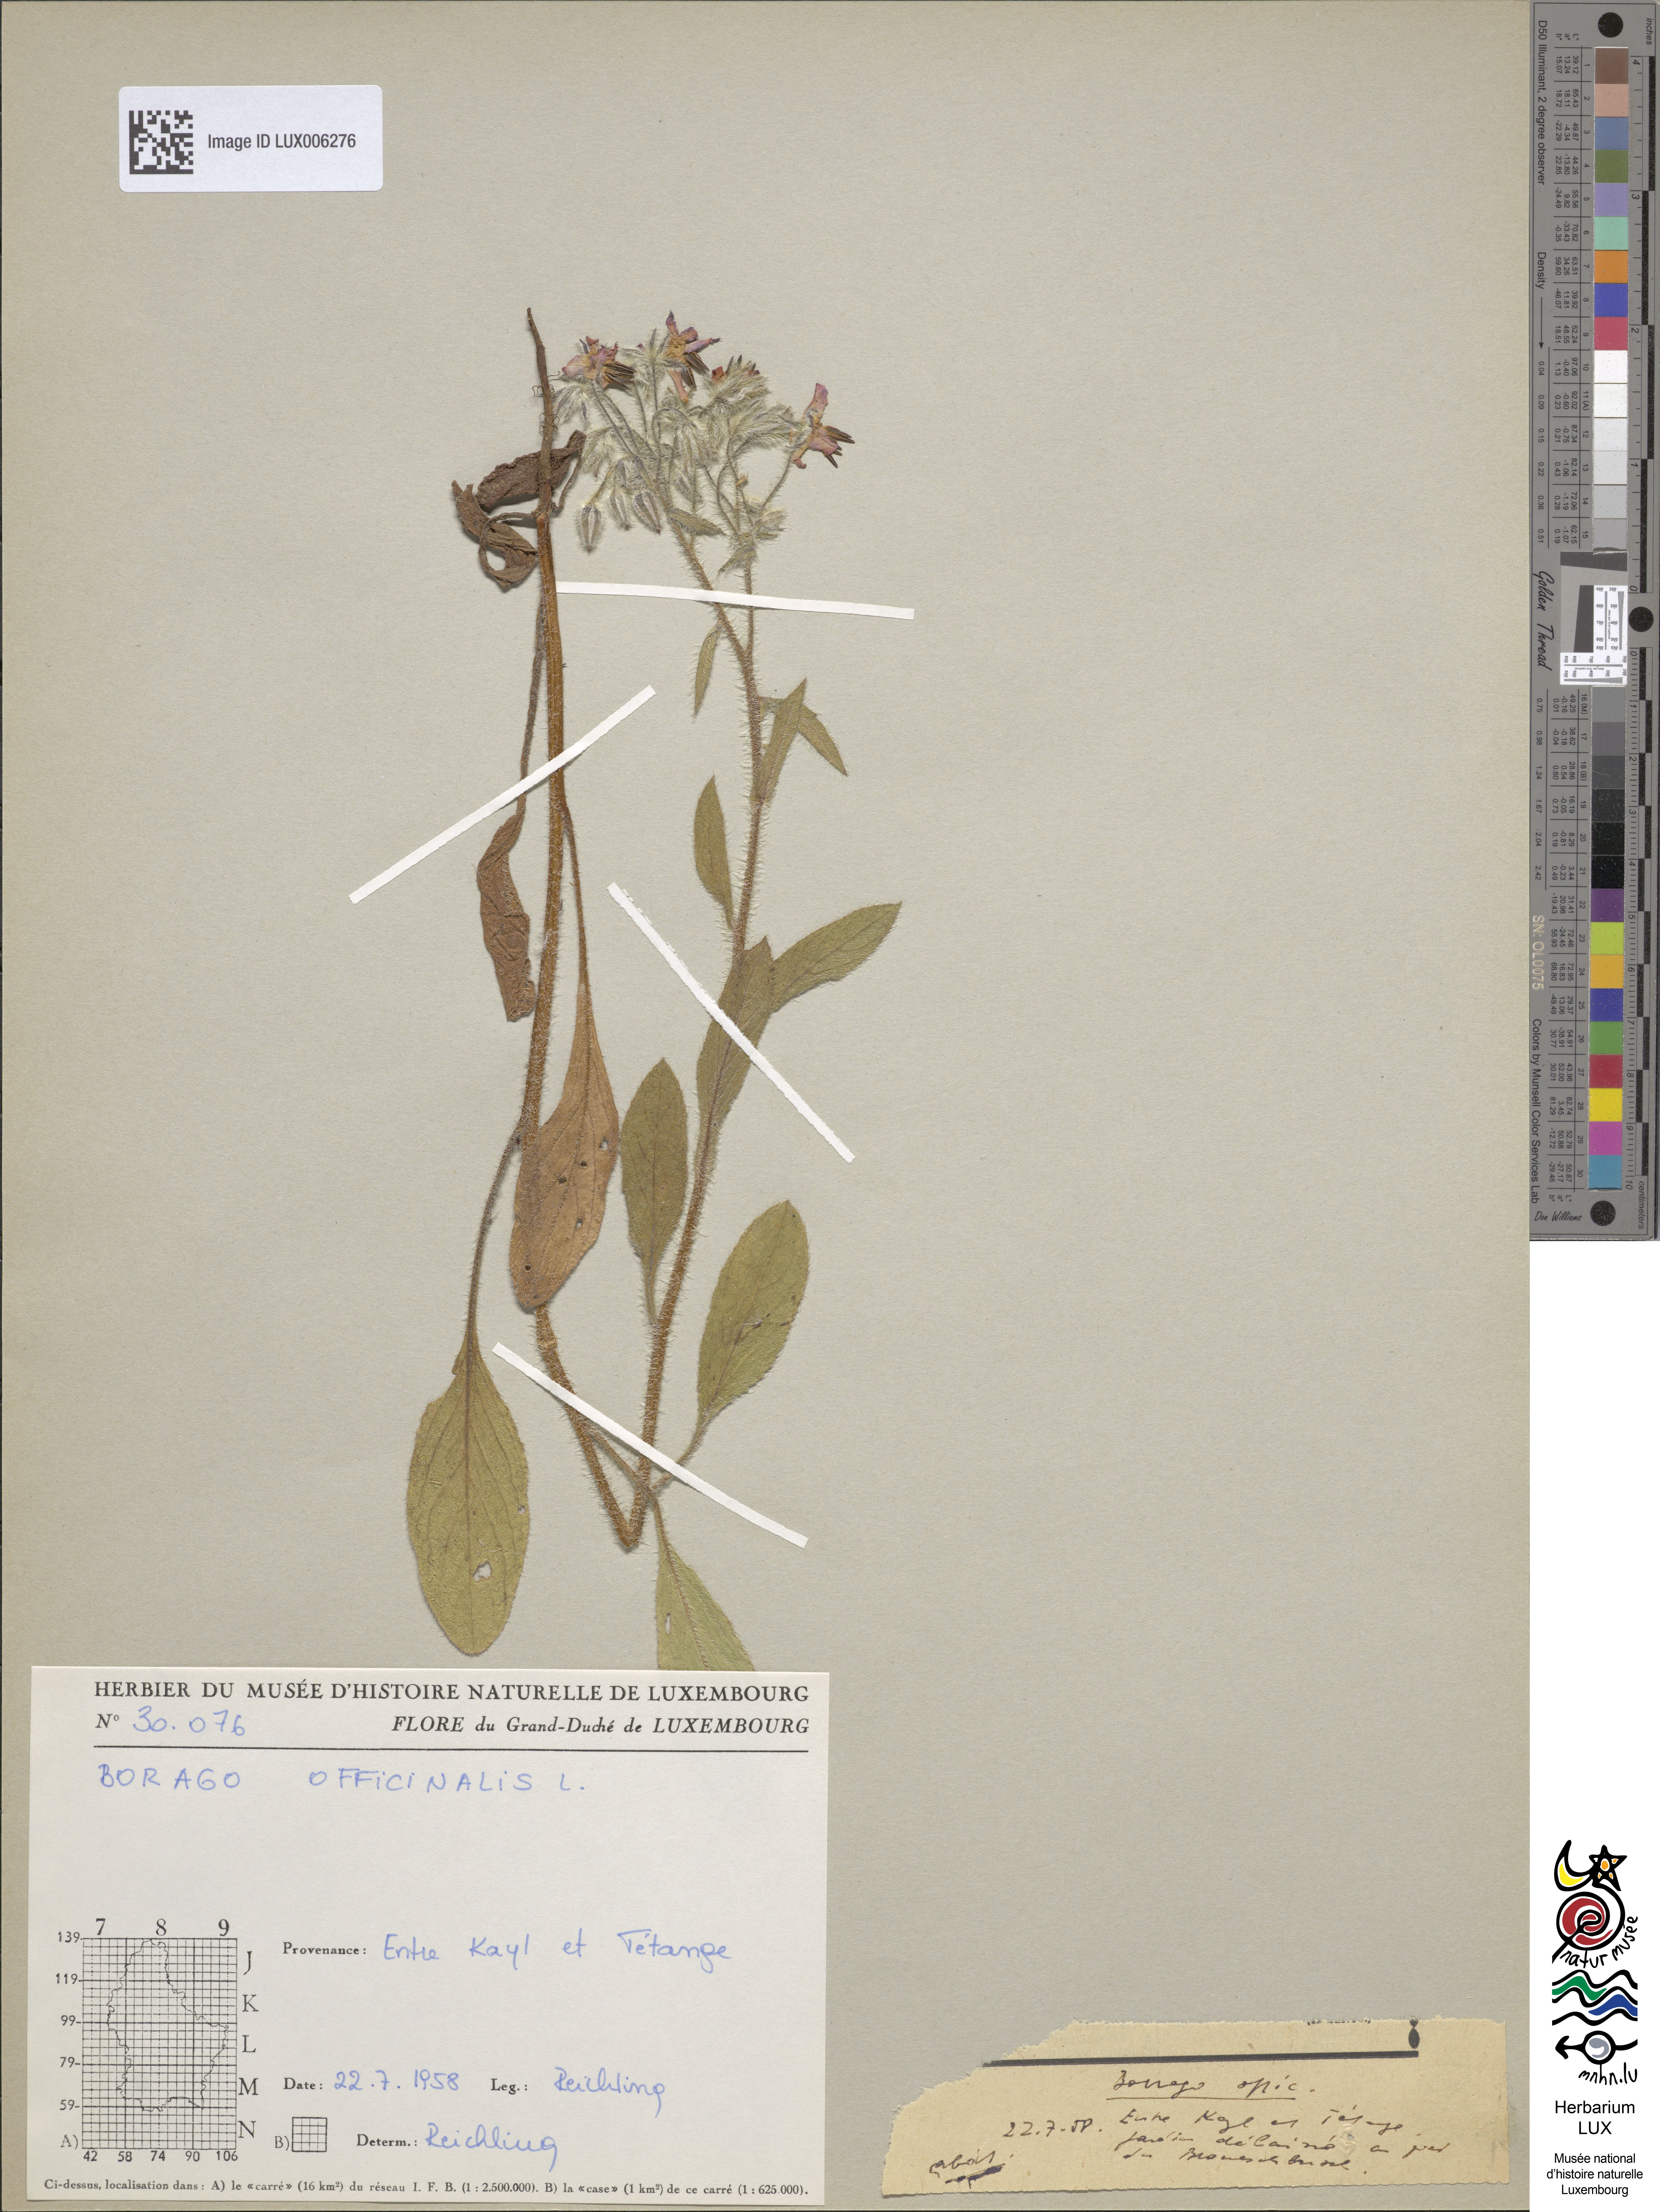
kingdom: Plantae
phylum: Tracheophyta
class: Magnoliopsida
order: Boraginales
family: Boraginaceae
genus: Borago
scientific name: Borago officinalis
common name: Borage
